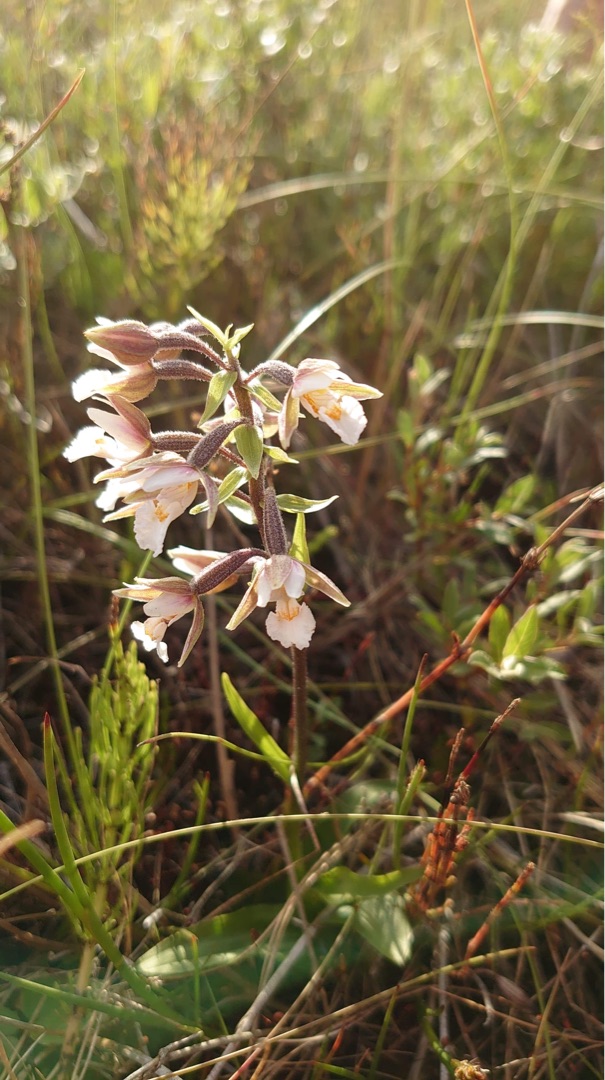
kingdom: Plantae
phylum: Tracheophyta
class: Liliopsida
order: Asparagales
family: Orchidaceae
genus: Epipactis
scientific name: Epipactis palustris
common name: Sump-hullæbe
